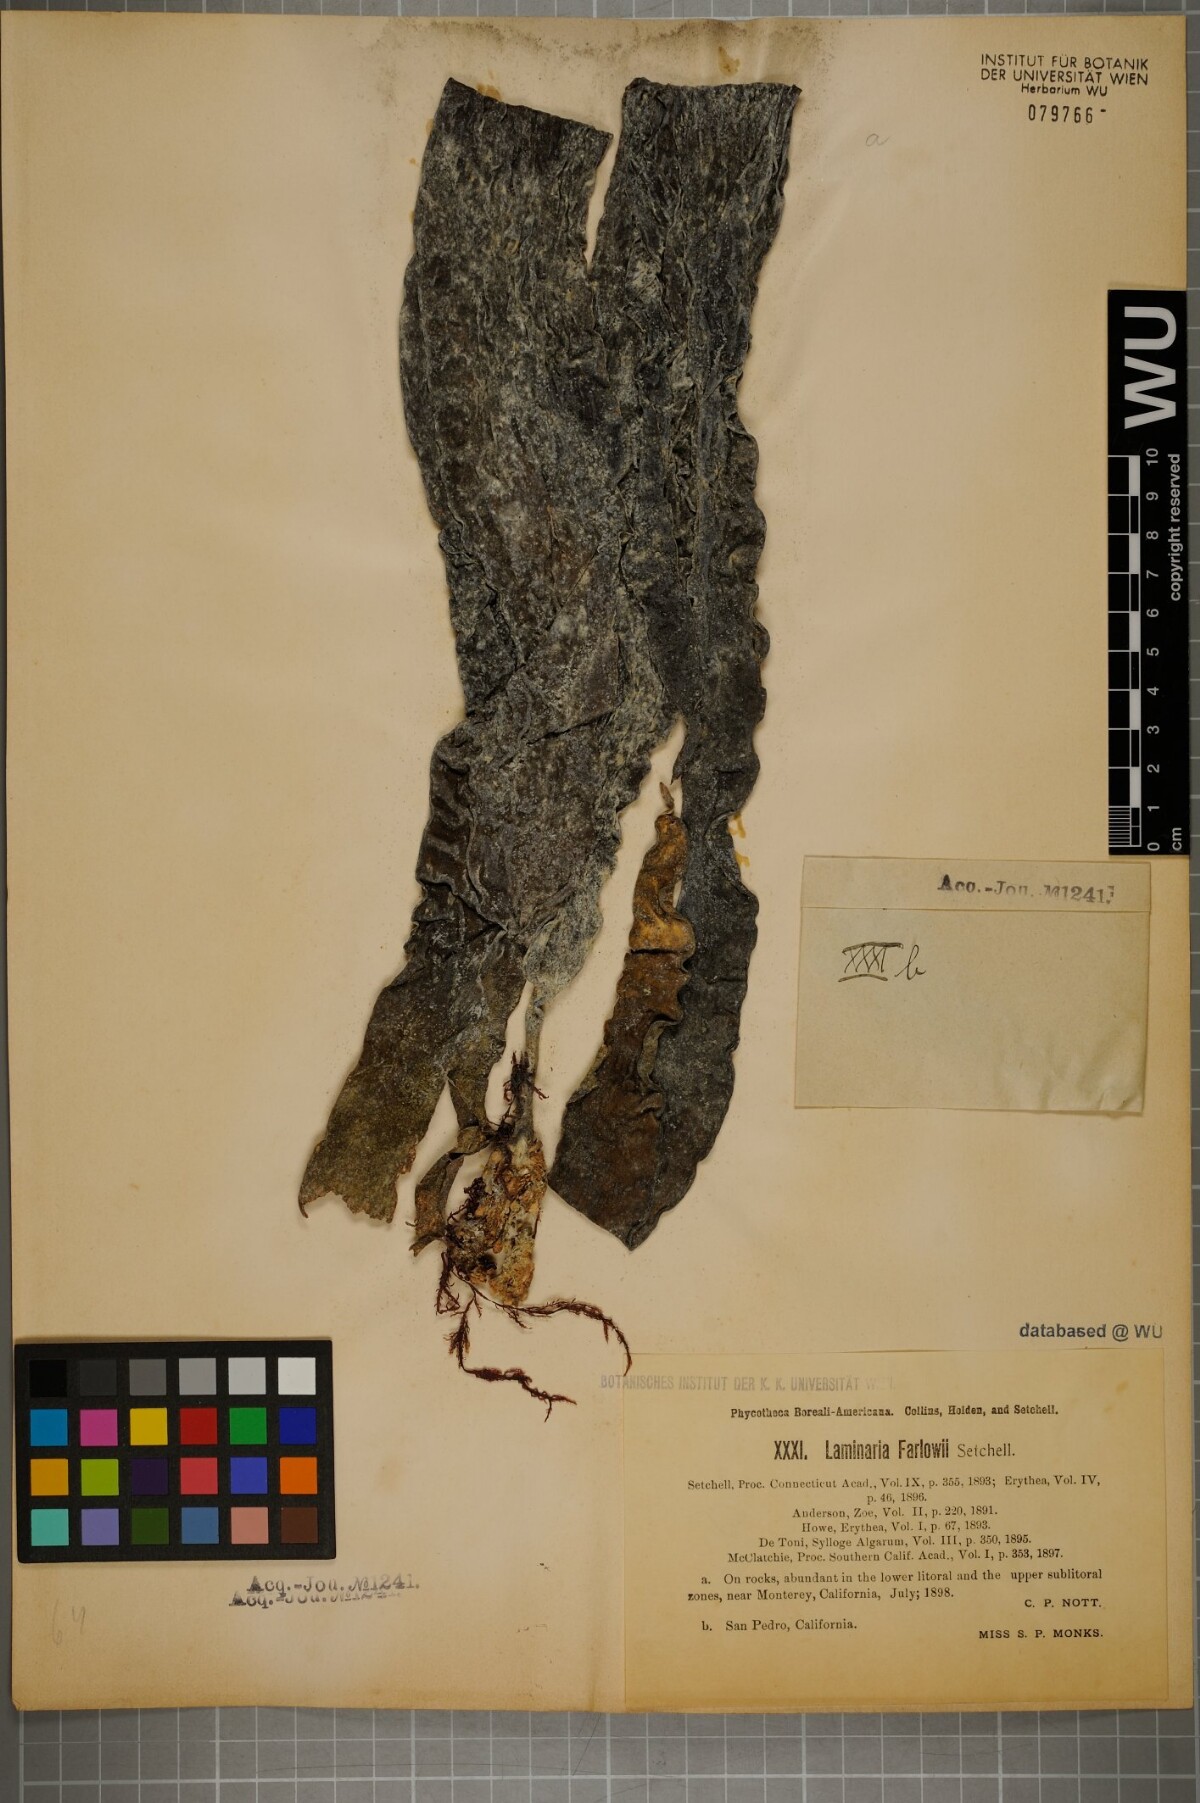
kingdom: Chromista
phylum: Ochrophyta
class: Phaeophyceae
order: Laminariales
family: Laminariaceae
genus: Laminaria
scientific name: Laminaria farlowii
